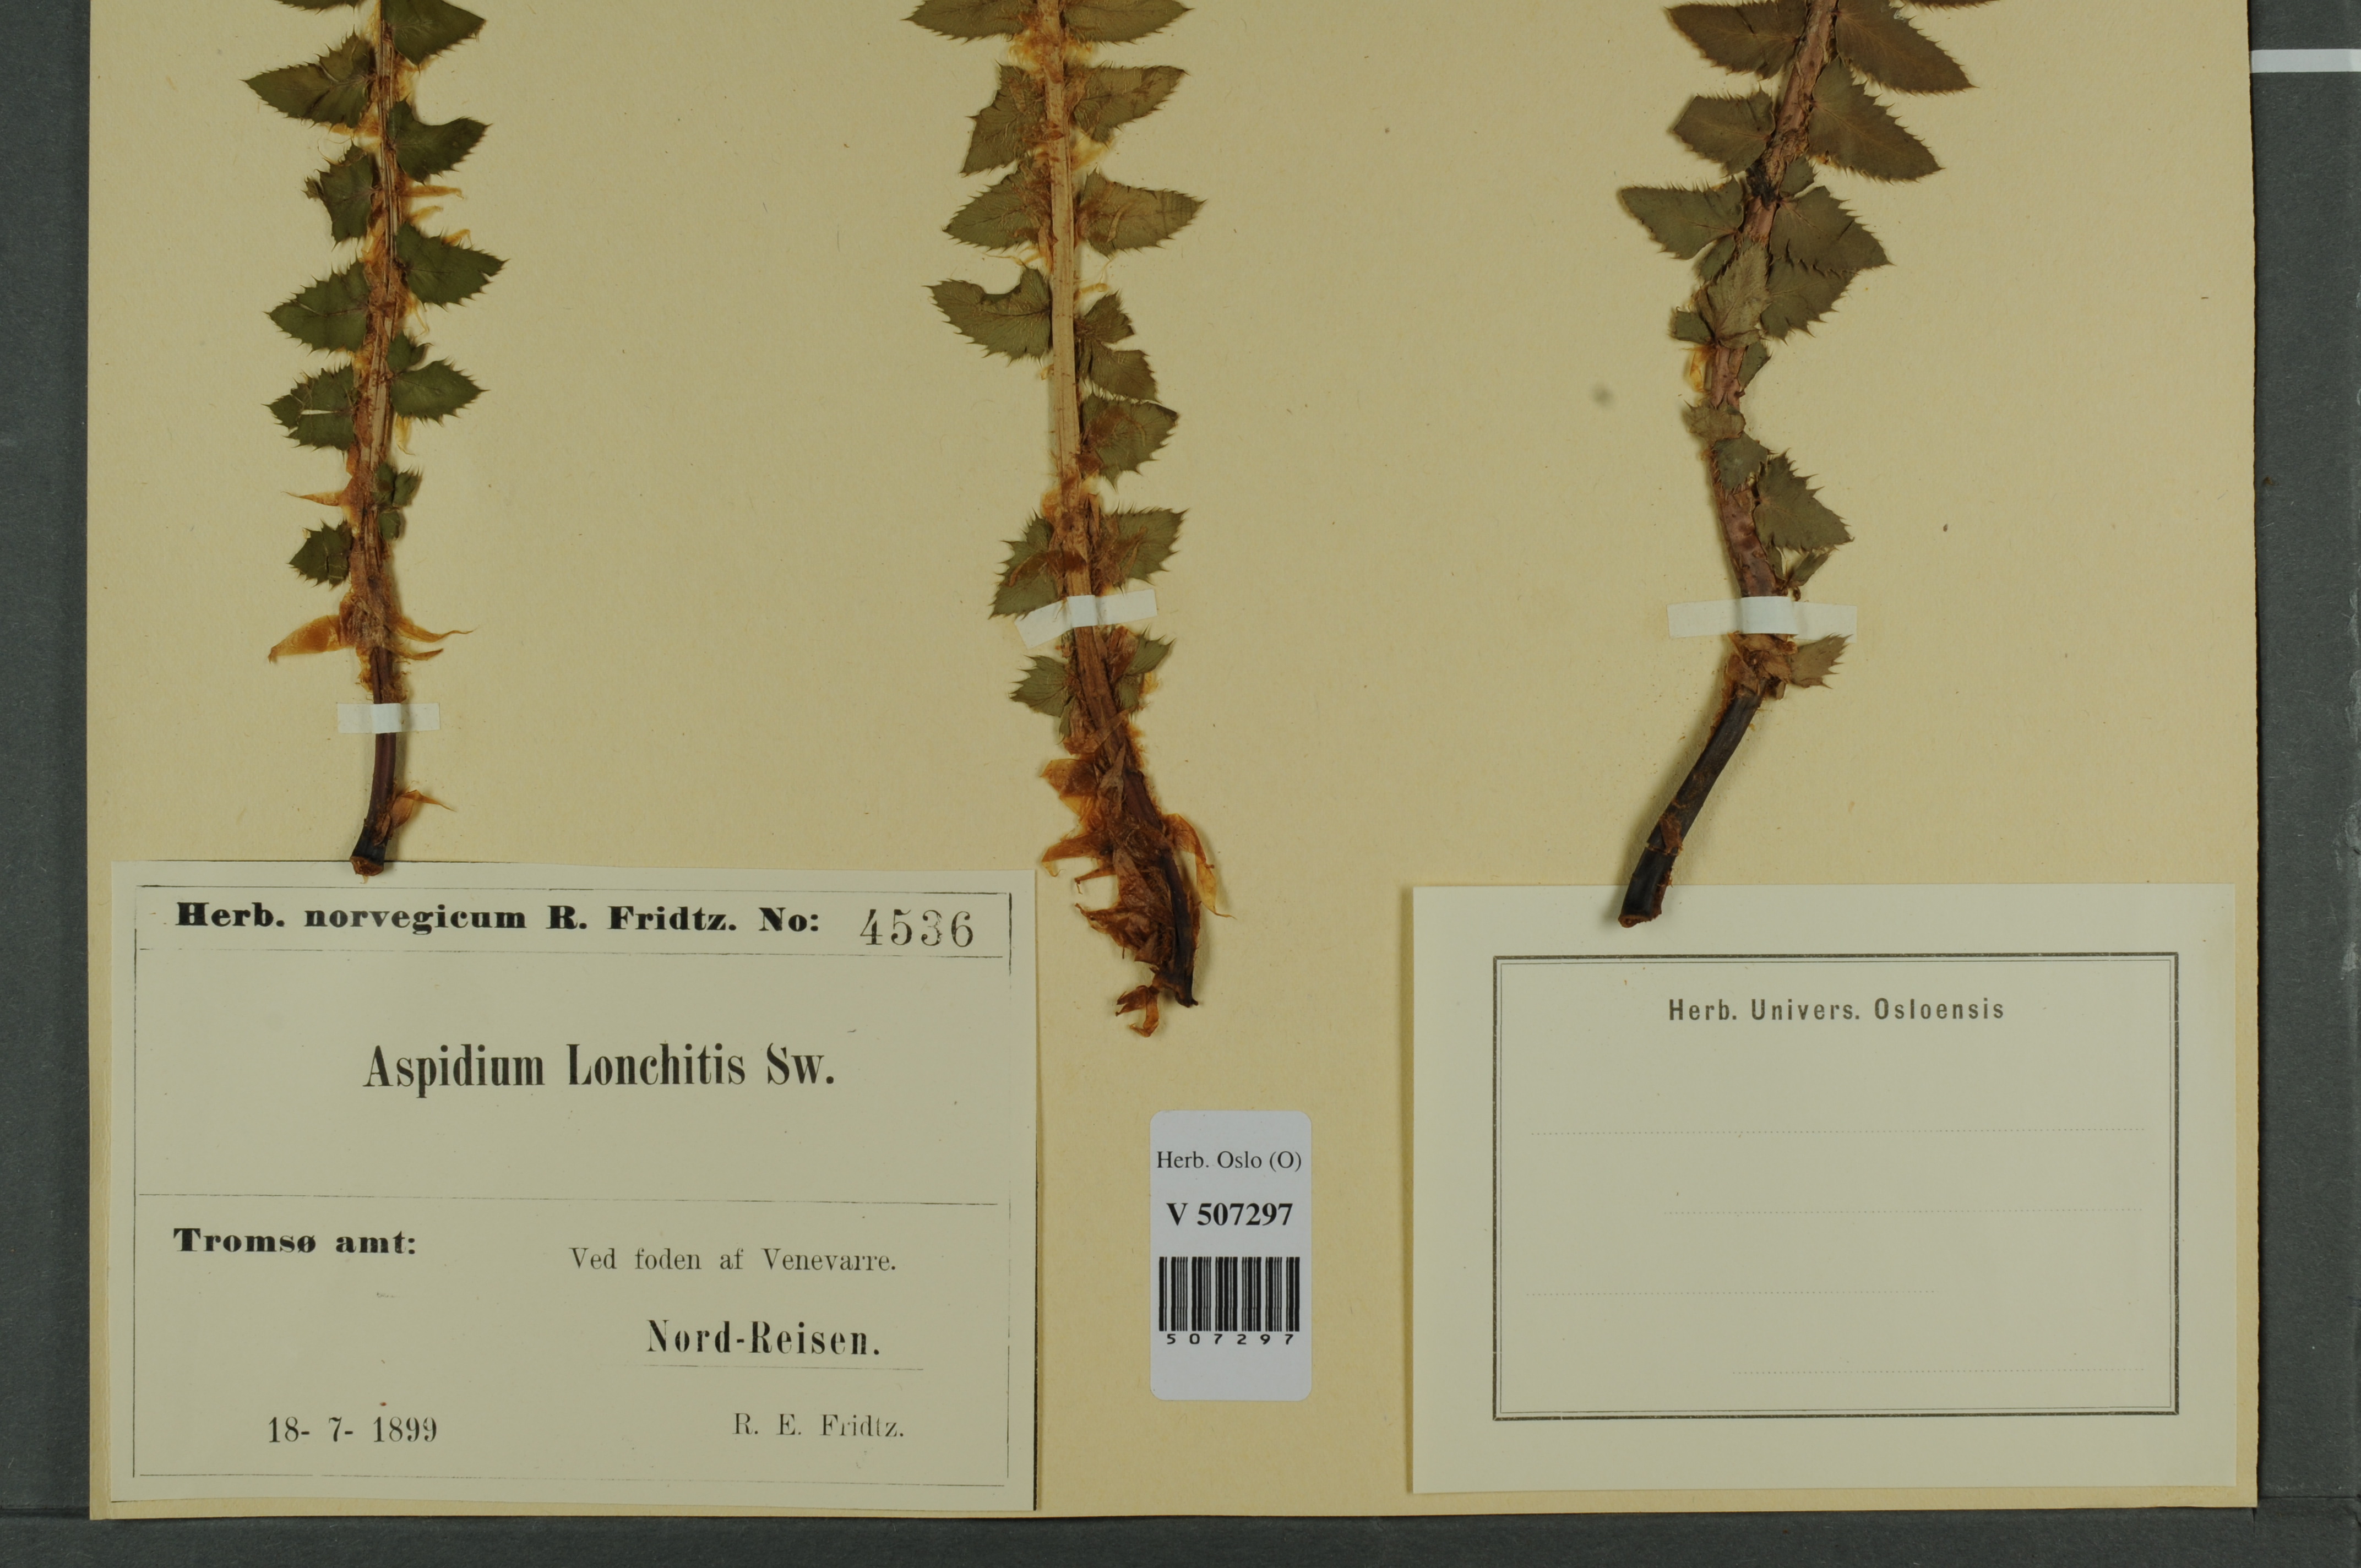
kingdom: Plantae
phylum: Tracheophyta
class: Polypodiopsida
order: Polypodiales
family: Dryopteridaceae
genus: Polystichum
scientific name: Polystichum lonchitis
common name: Holly fern
